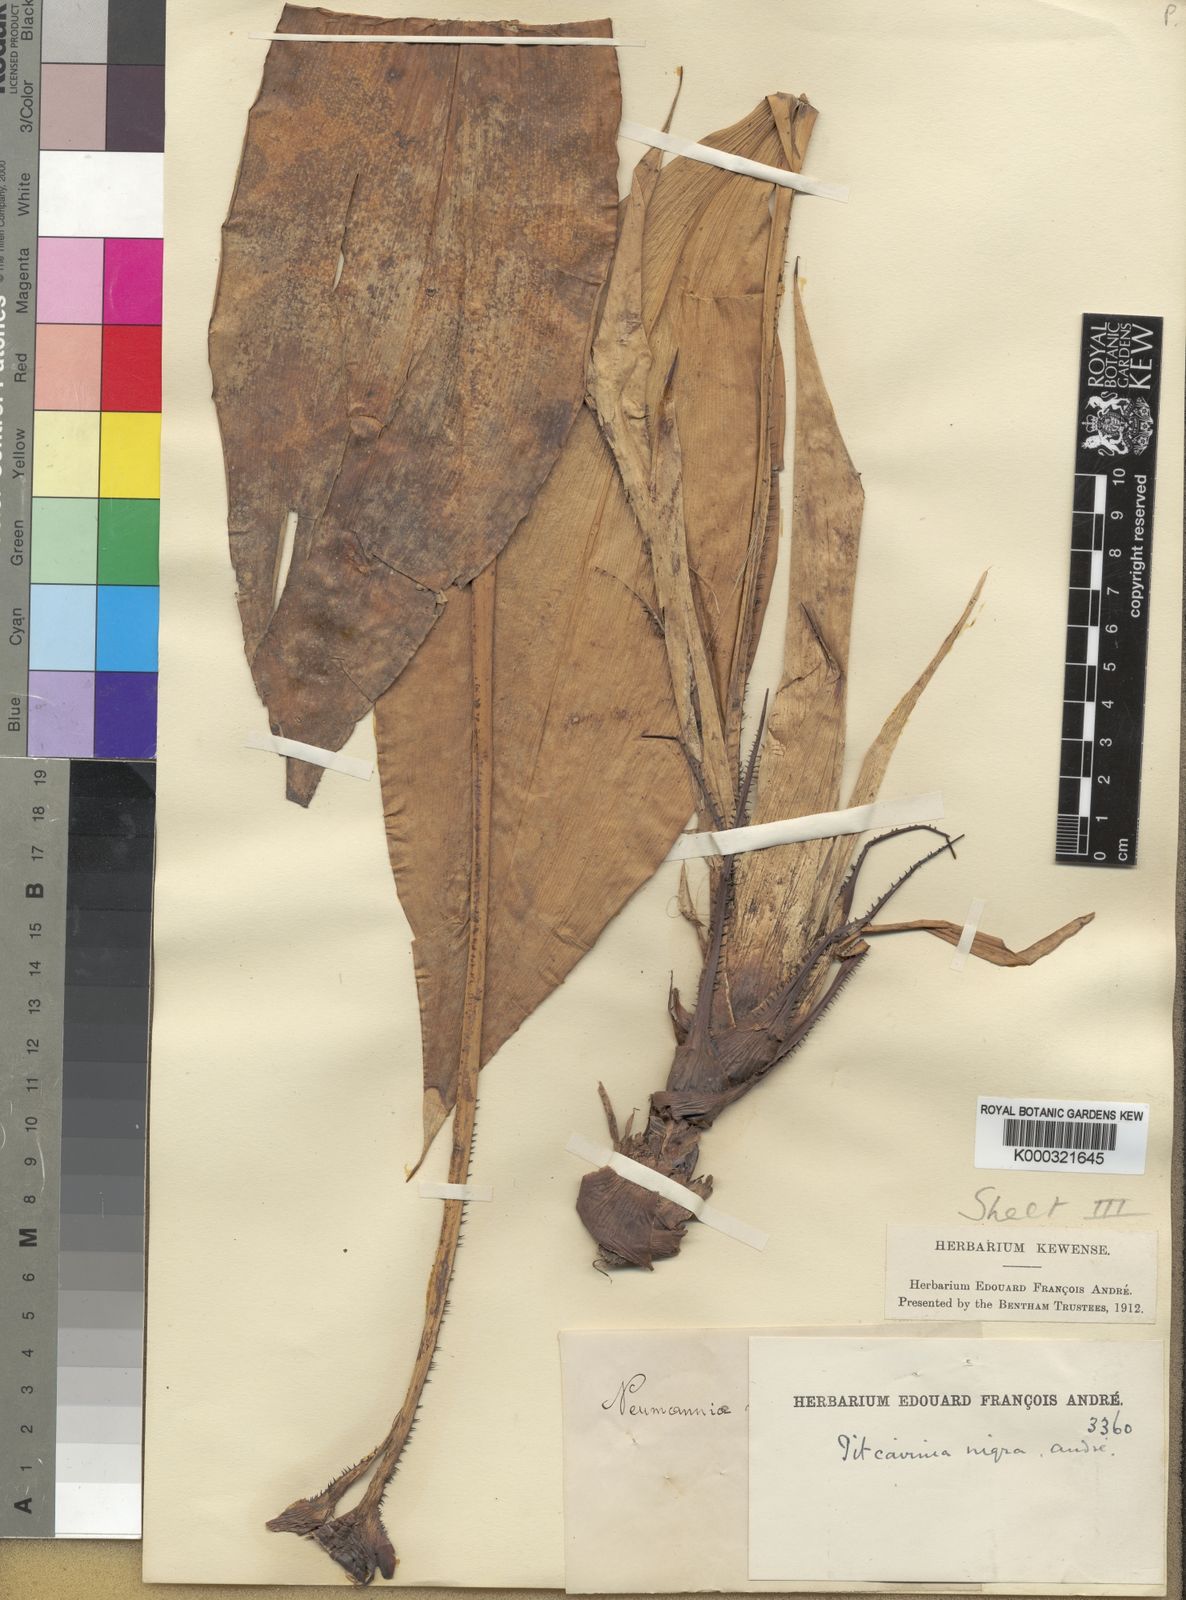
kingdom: Plantae
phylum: Tracheophyta
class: Liliopsida
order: Poales
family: Bromeliaceae
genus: Pitcairnia
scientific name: Pitcairnia
